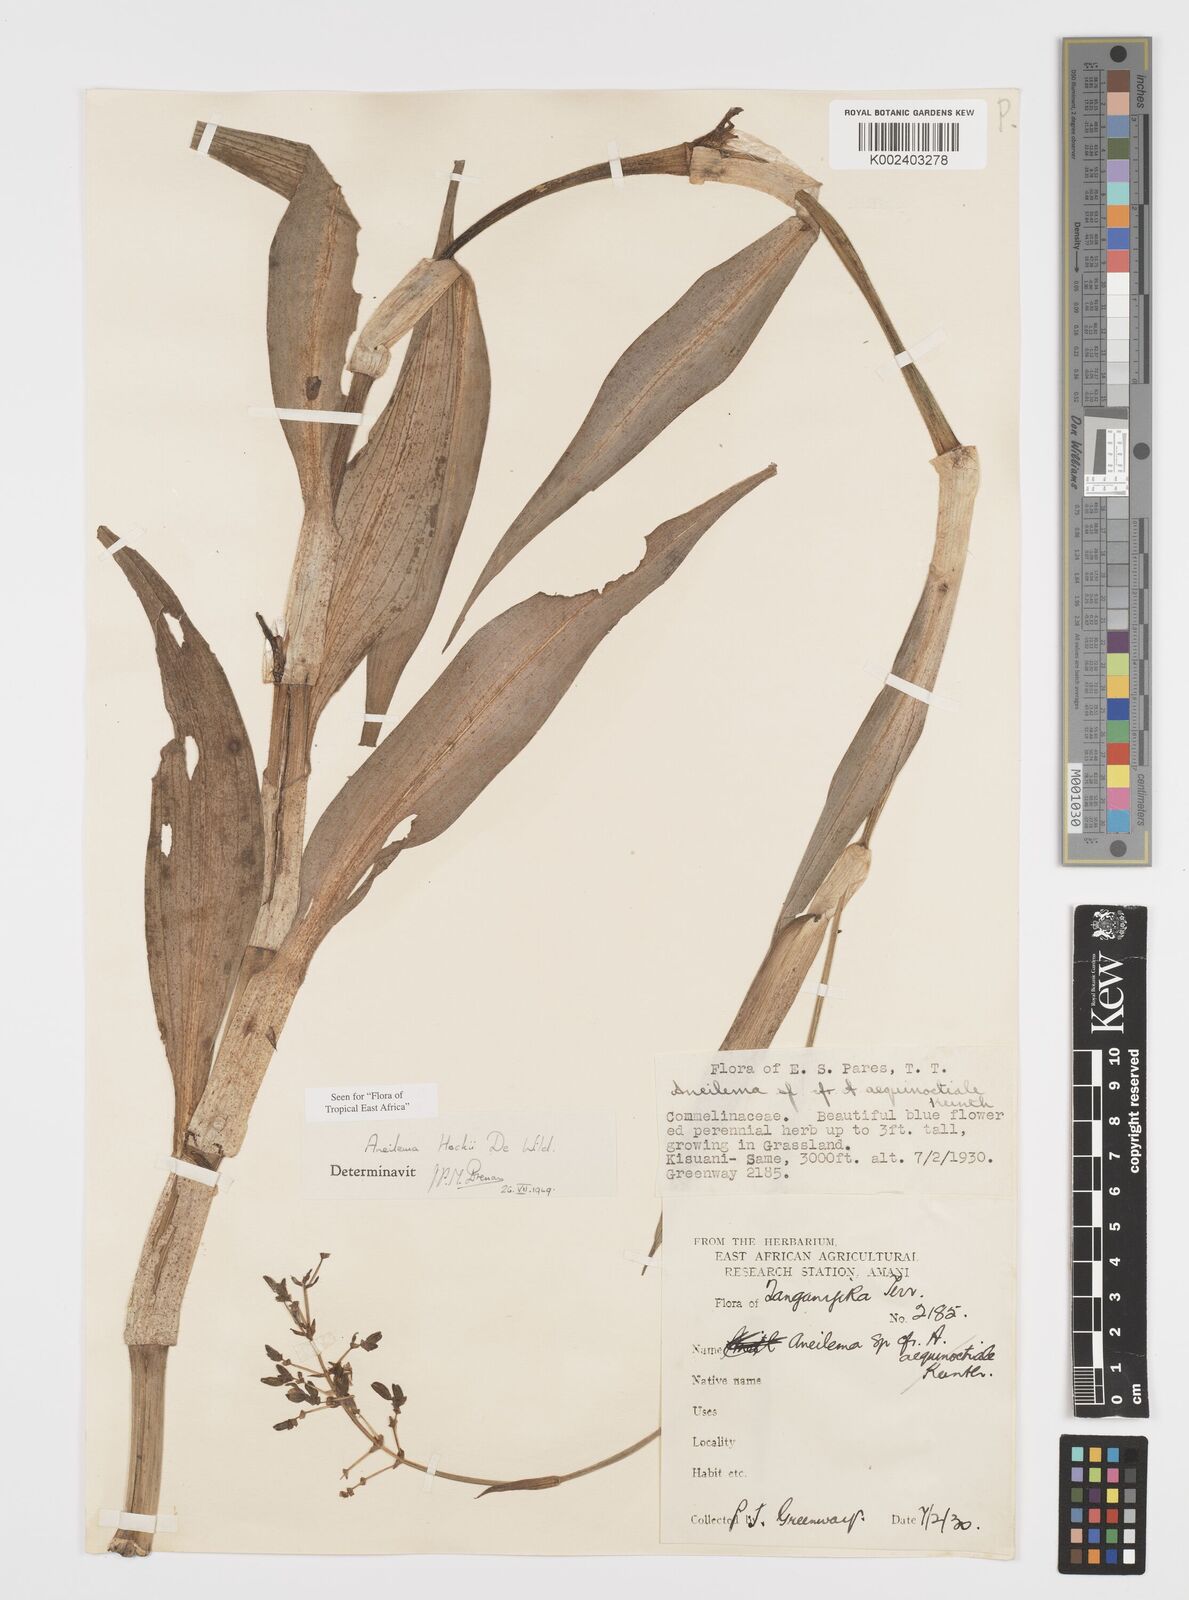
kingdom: Plantae
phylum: Tracheophyta
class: Liliopsida
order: Commelinales
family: Commelinaceae
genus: Aneilema
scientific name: Aneilema hockii
